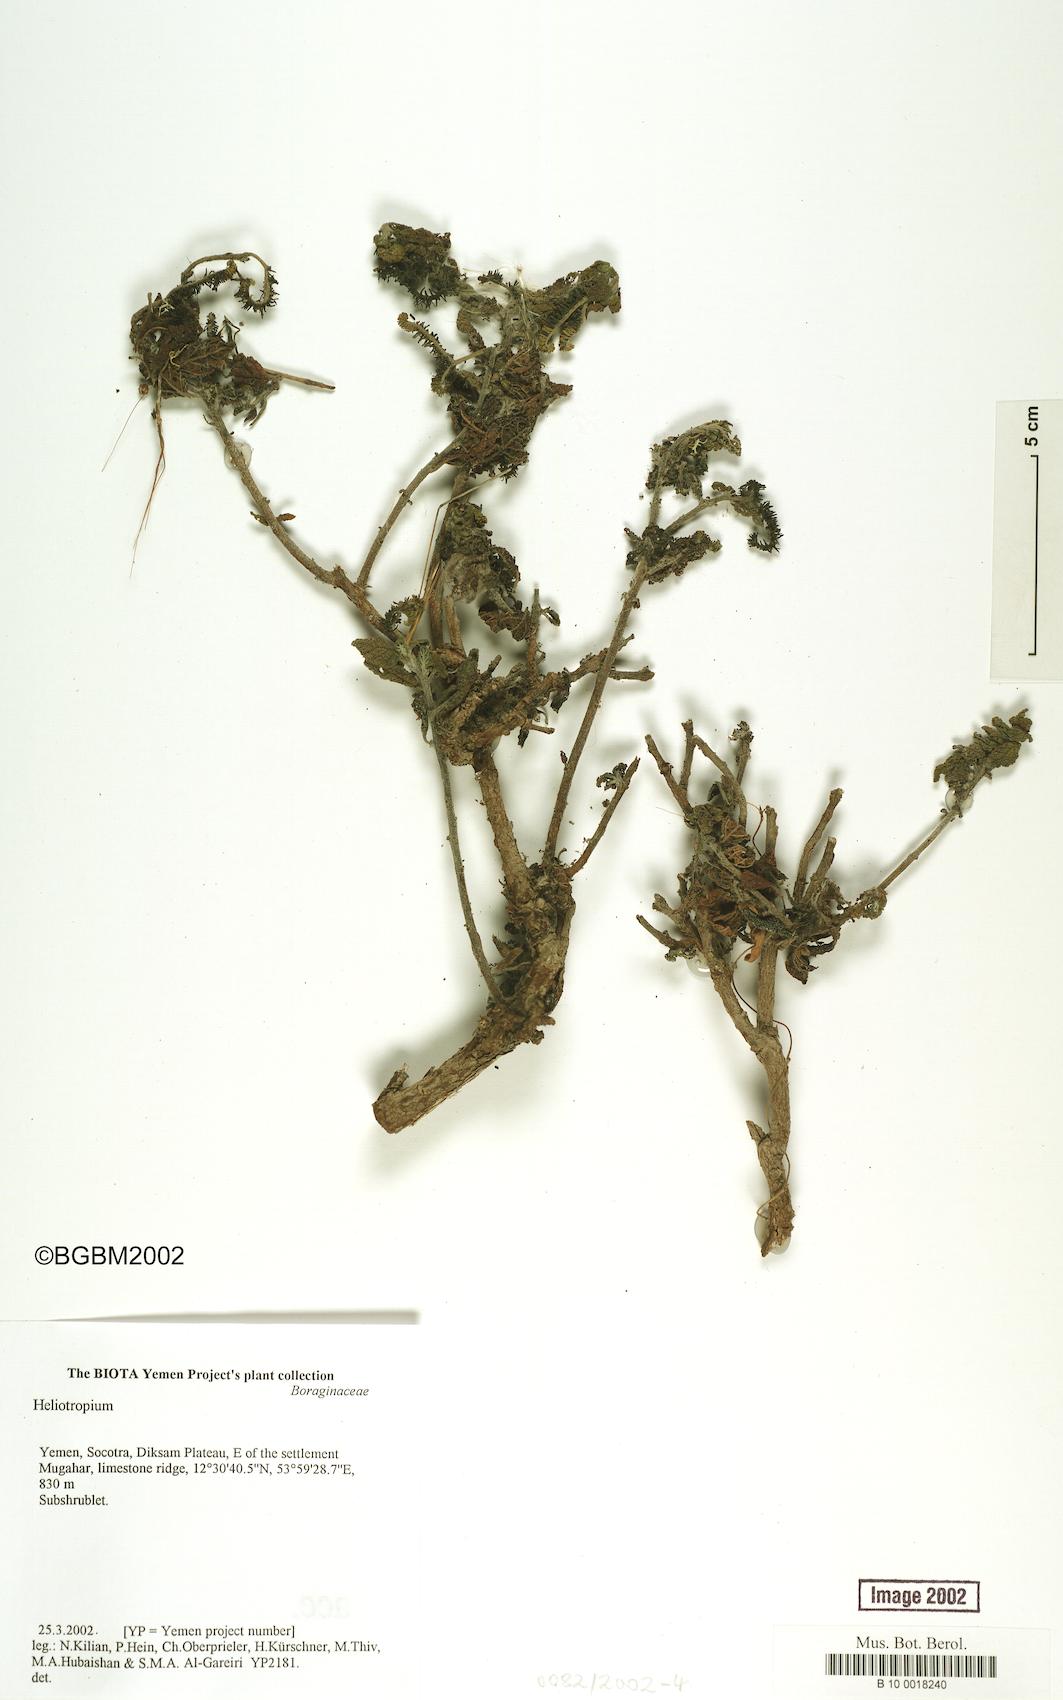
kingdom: Plantae
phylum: Tracheophyta
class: Magnoliopsida
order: Boraginales
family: Heliotropiaceae
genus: Heliotropium
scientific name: Heliotropium
